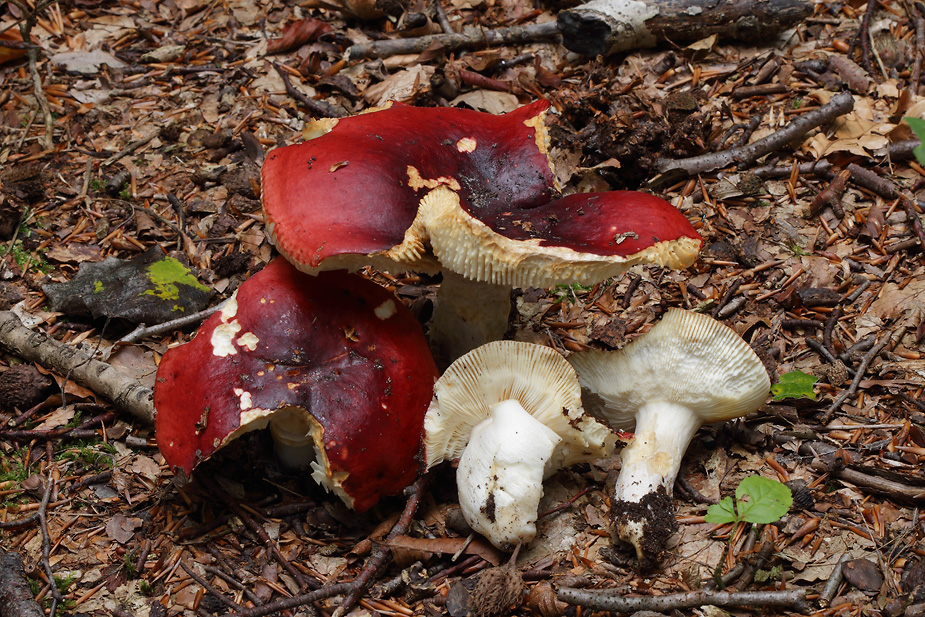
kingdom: Fungi
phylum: Basidiomycota
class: Agaricomycetes
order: Russulales
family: Russulaceae
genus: Russula
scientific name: Russula melliolens
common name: honning-skørhat
